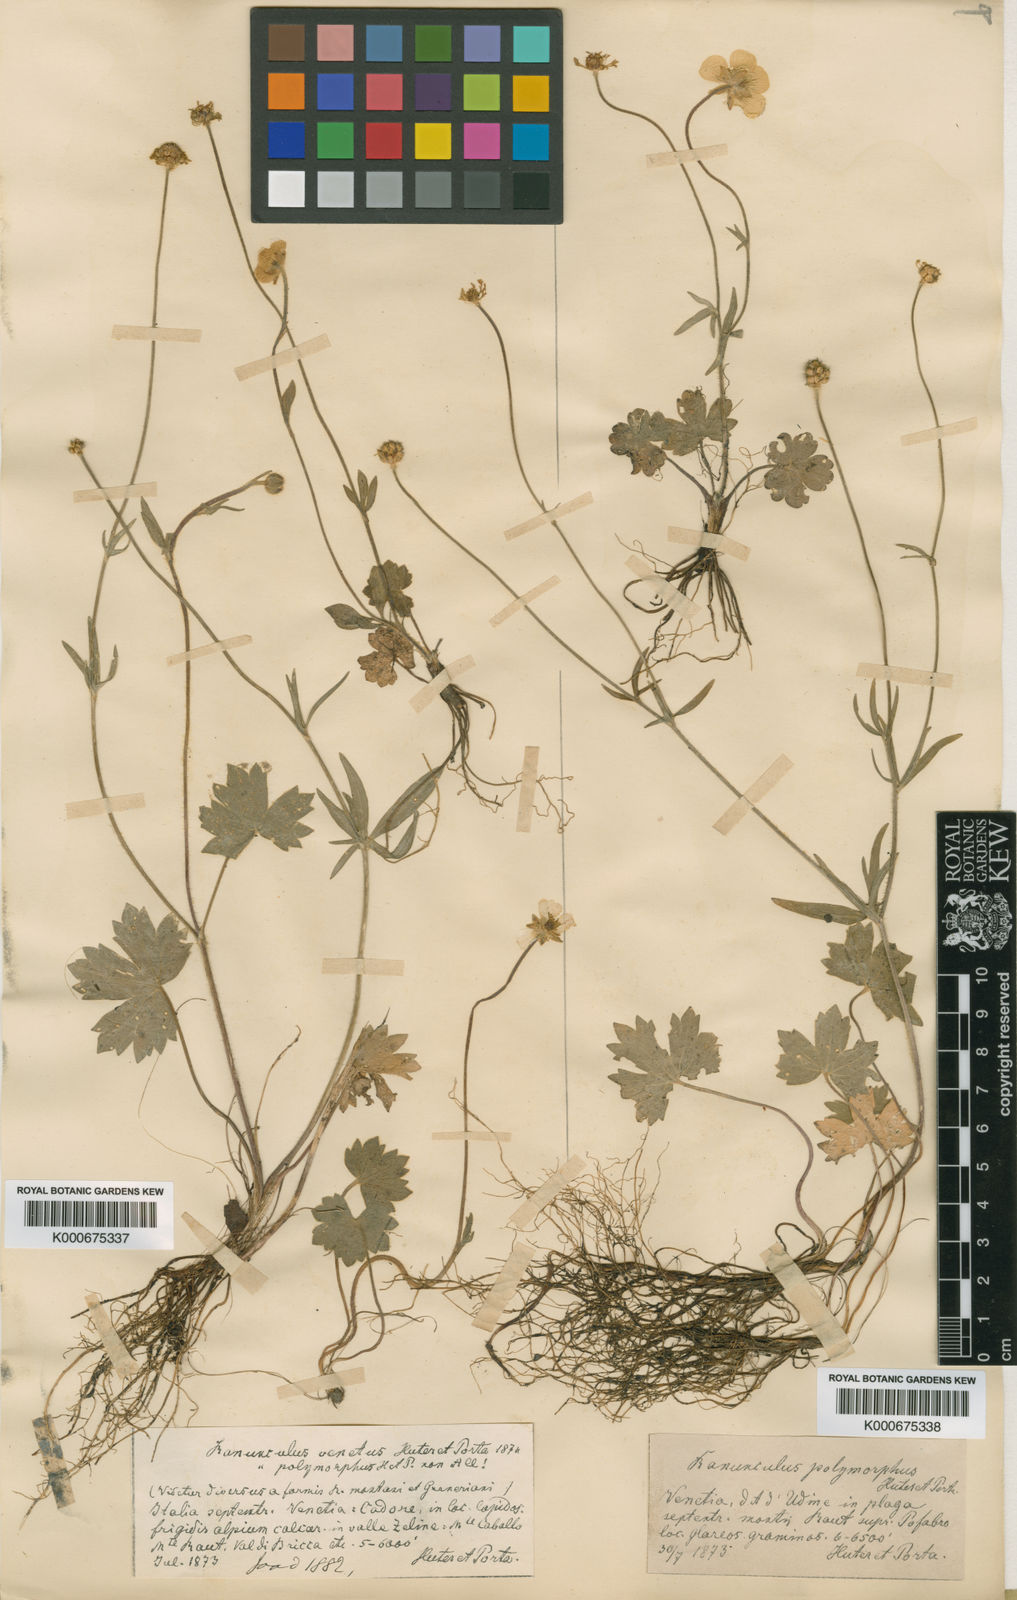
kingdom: Plantae
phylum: Tracheophyta
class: Magnoliopsida
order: Ranunculales
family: Ranunculaceae
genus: Ranunculus
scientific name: Ranunculus venetus
